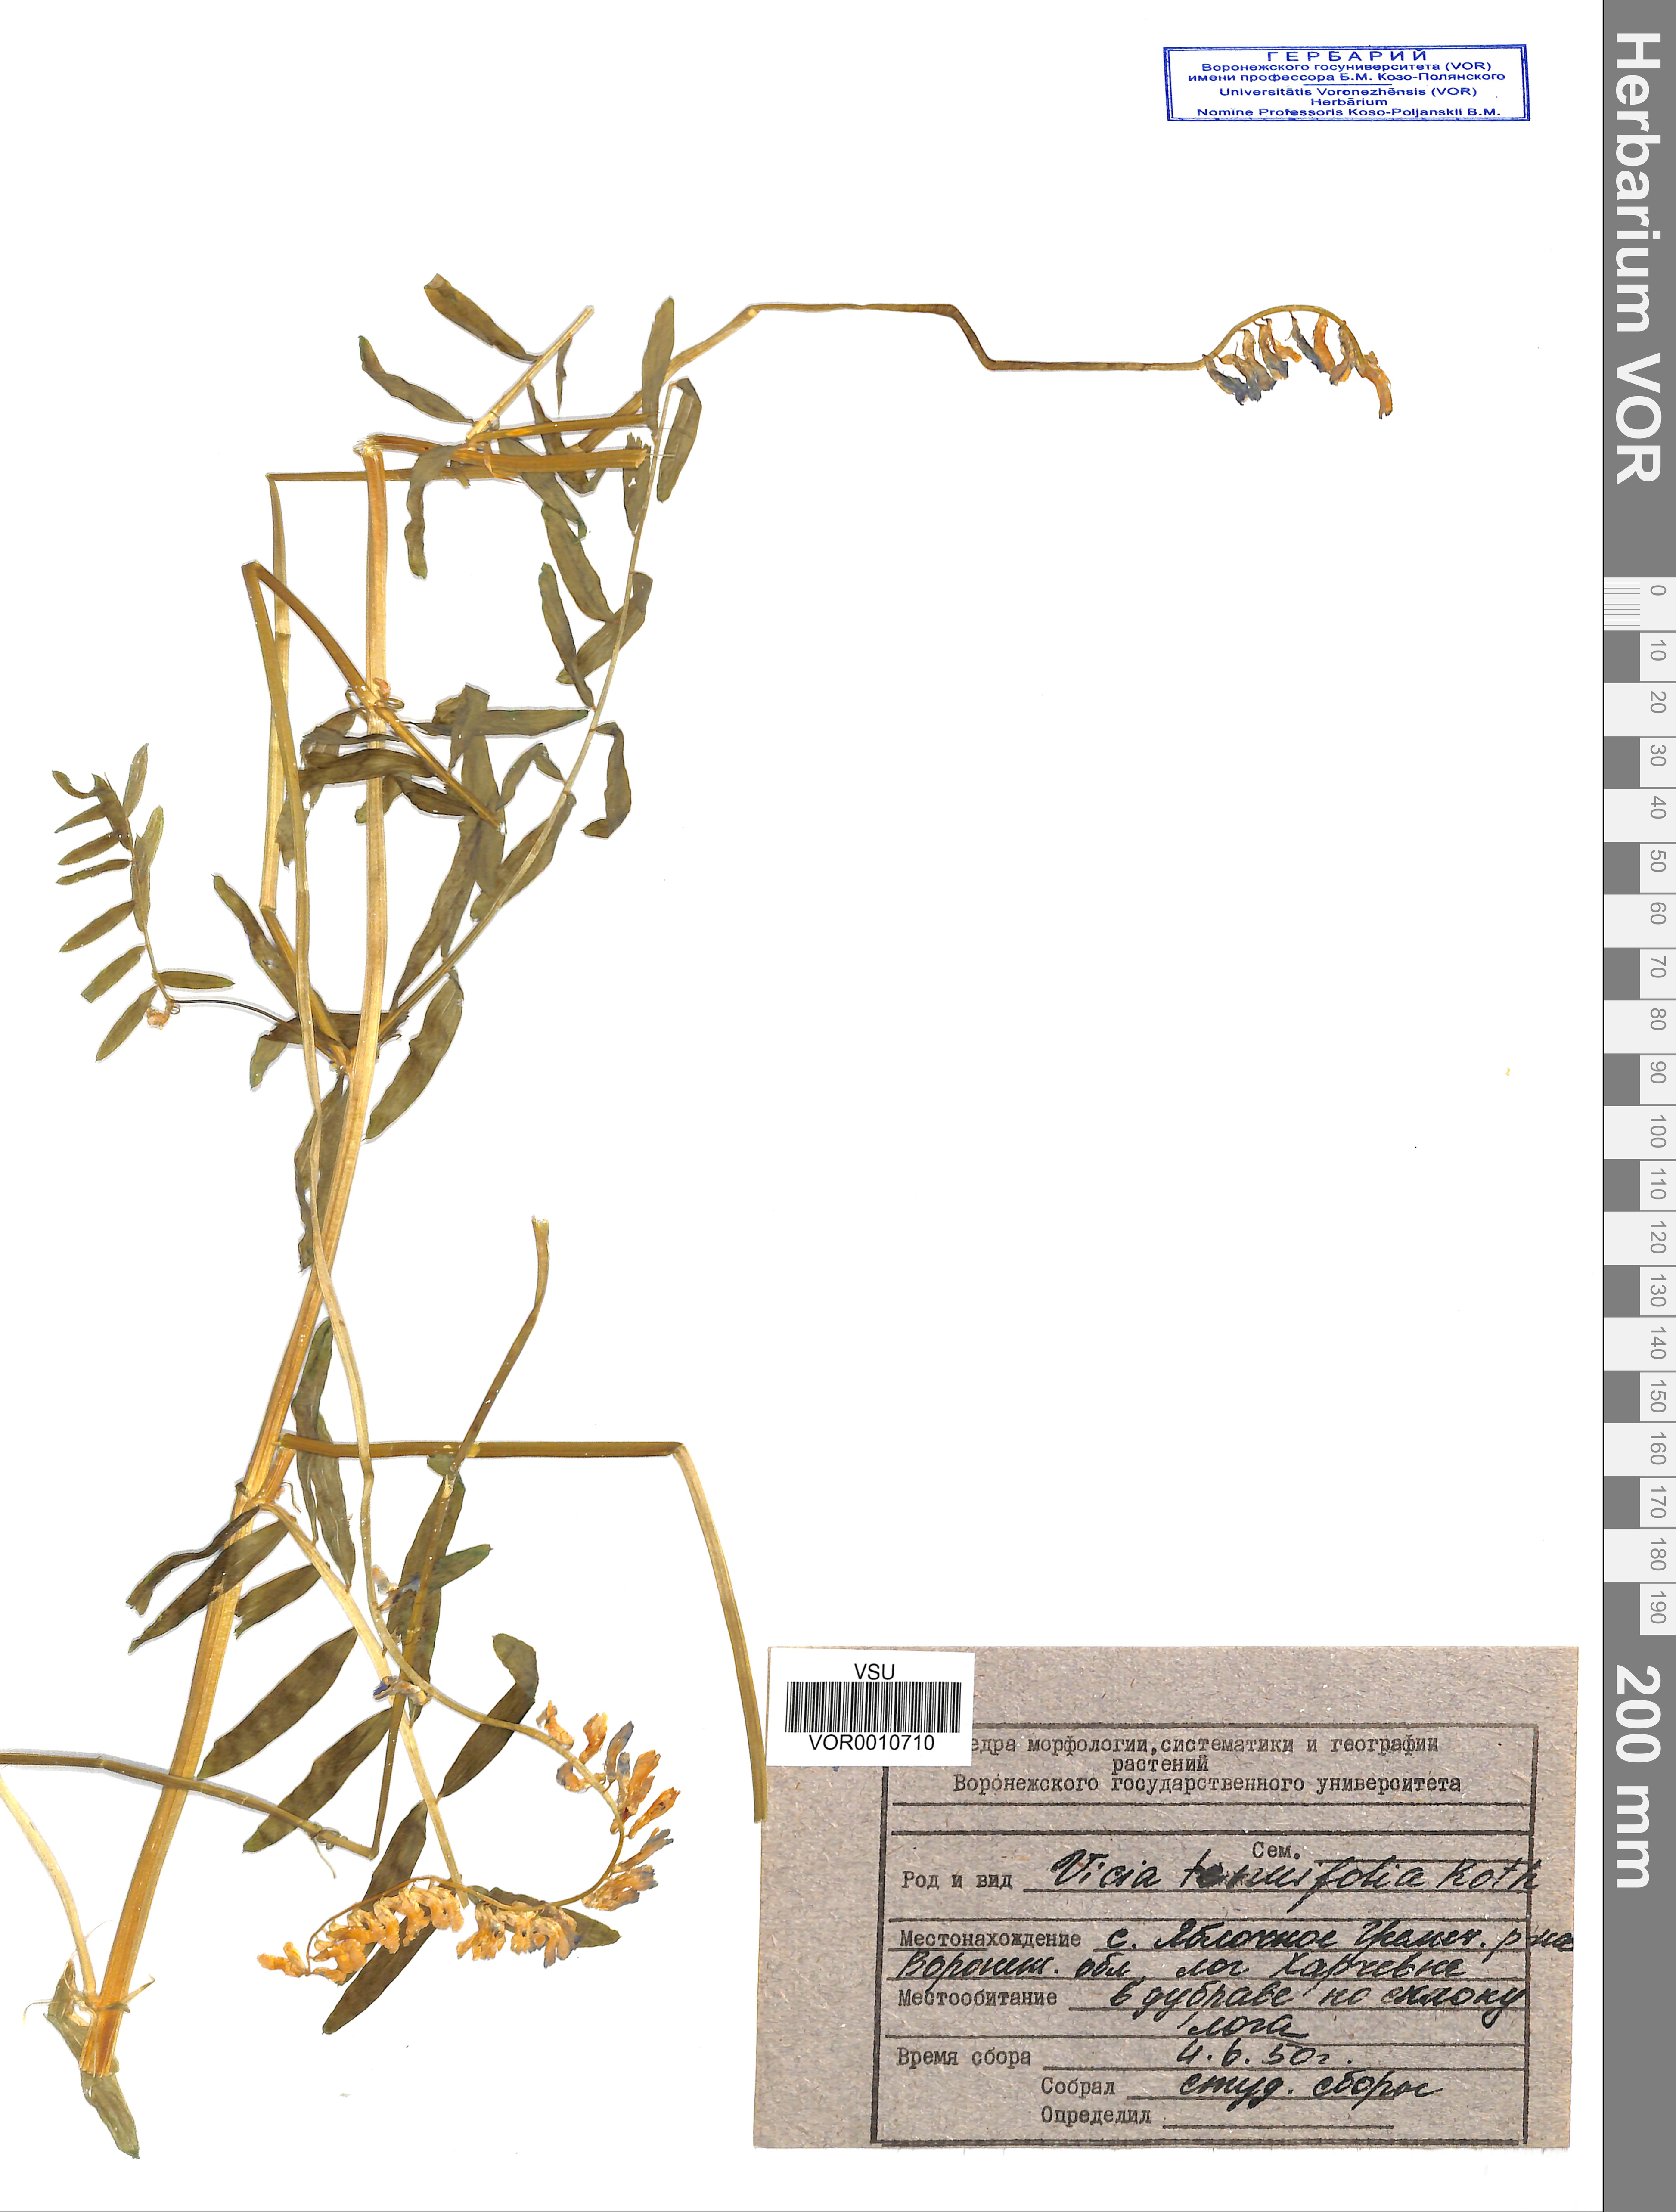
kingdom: Plantae
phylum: Tracheophyta
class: Magnoliopsida
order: Fabales
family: Fabaceae
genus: Vicia
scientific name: Vicia tenuifolia
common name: Fine-leaved vetch
